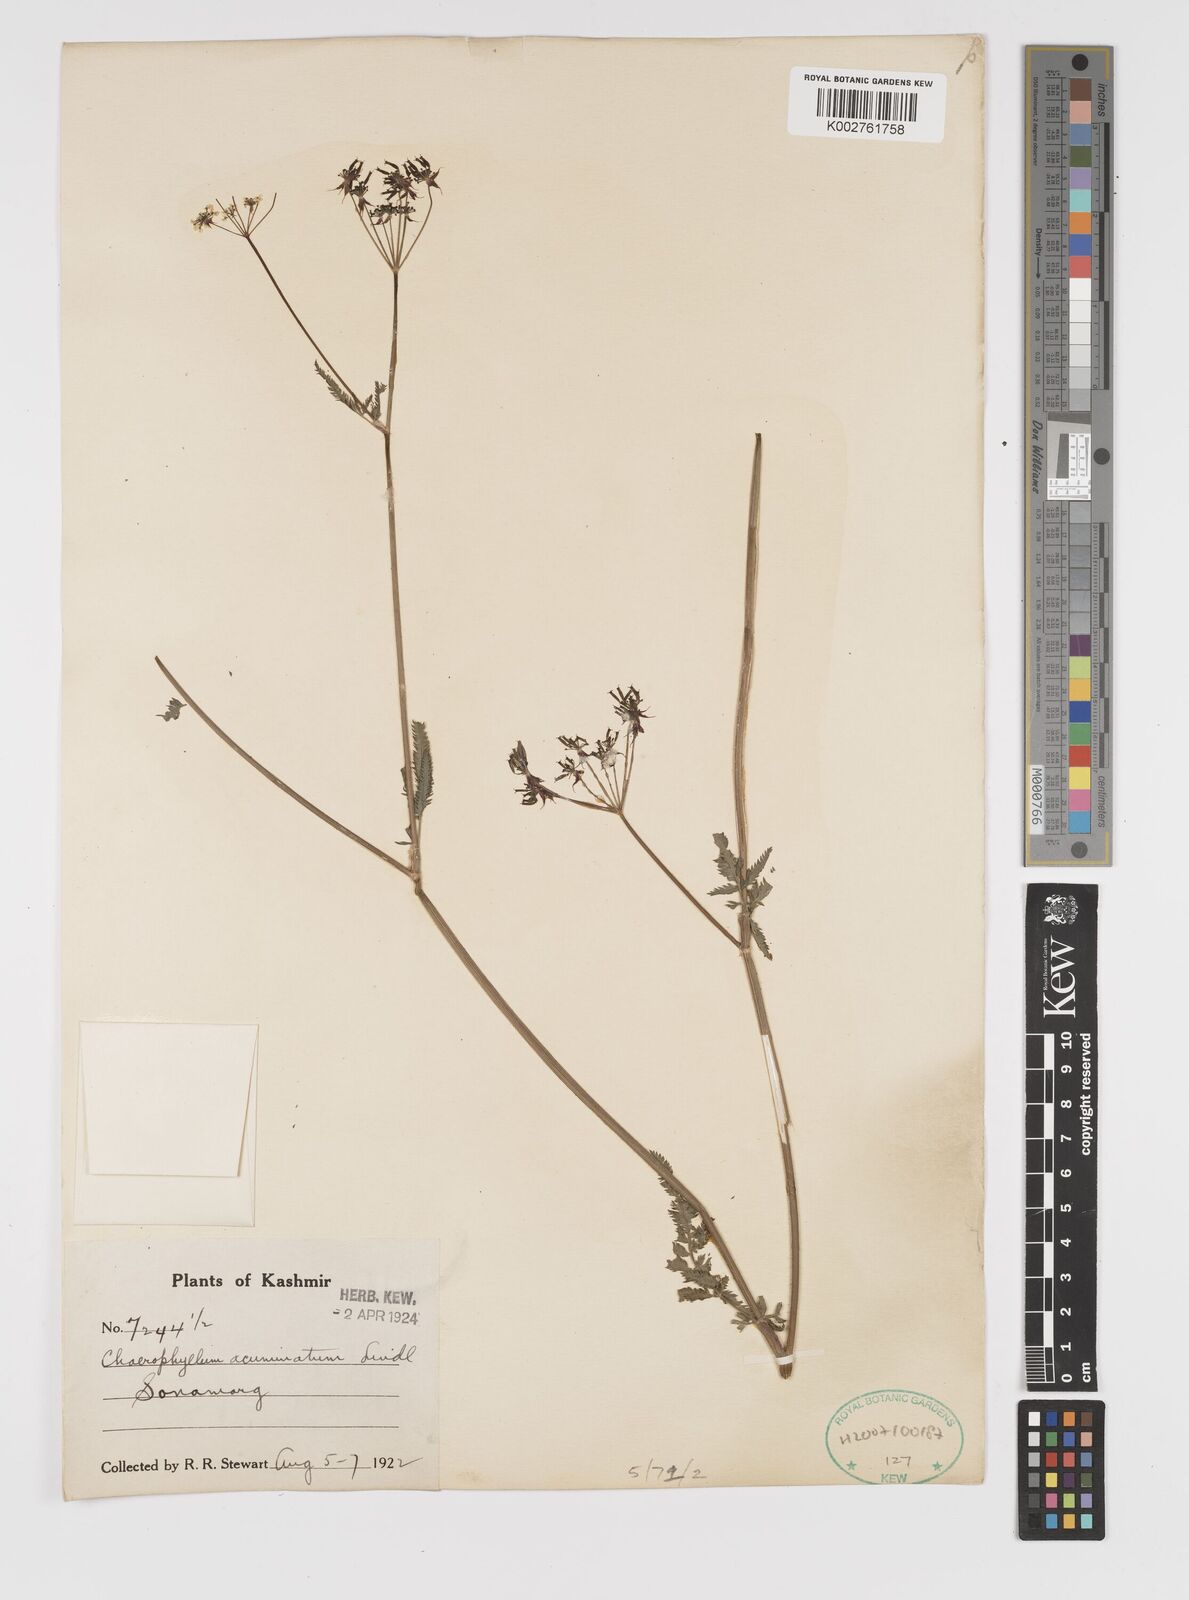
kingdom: Plantae
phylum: Tracheophyta
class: Magnoliopsida
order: Apiales
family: Apiaceae
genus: Chaerophyllum
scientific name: Chaerophyllum reflexum
